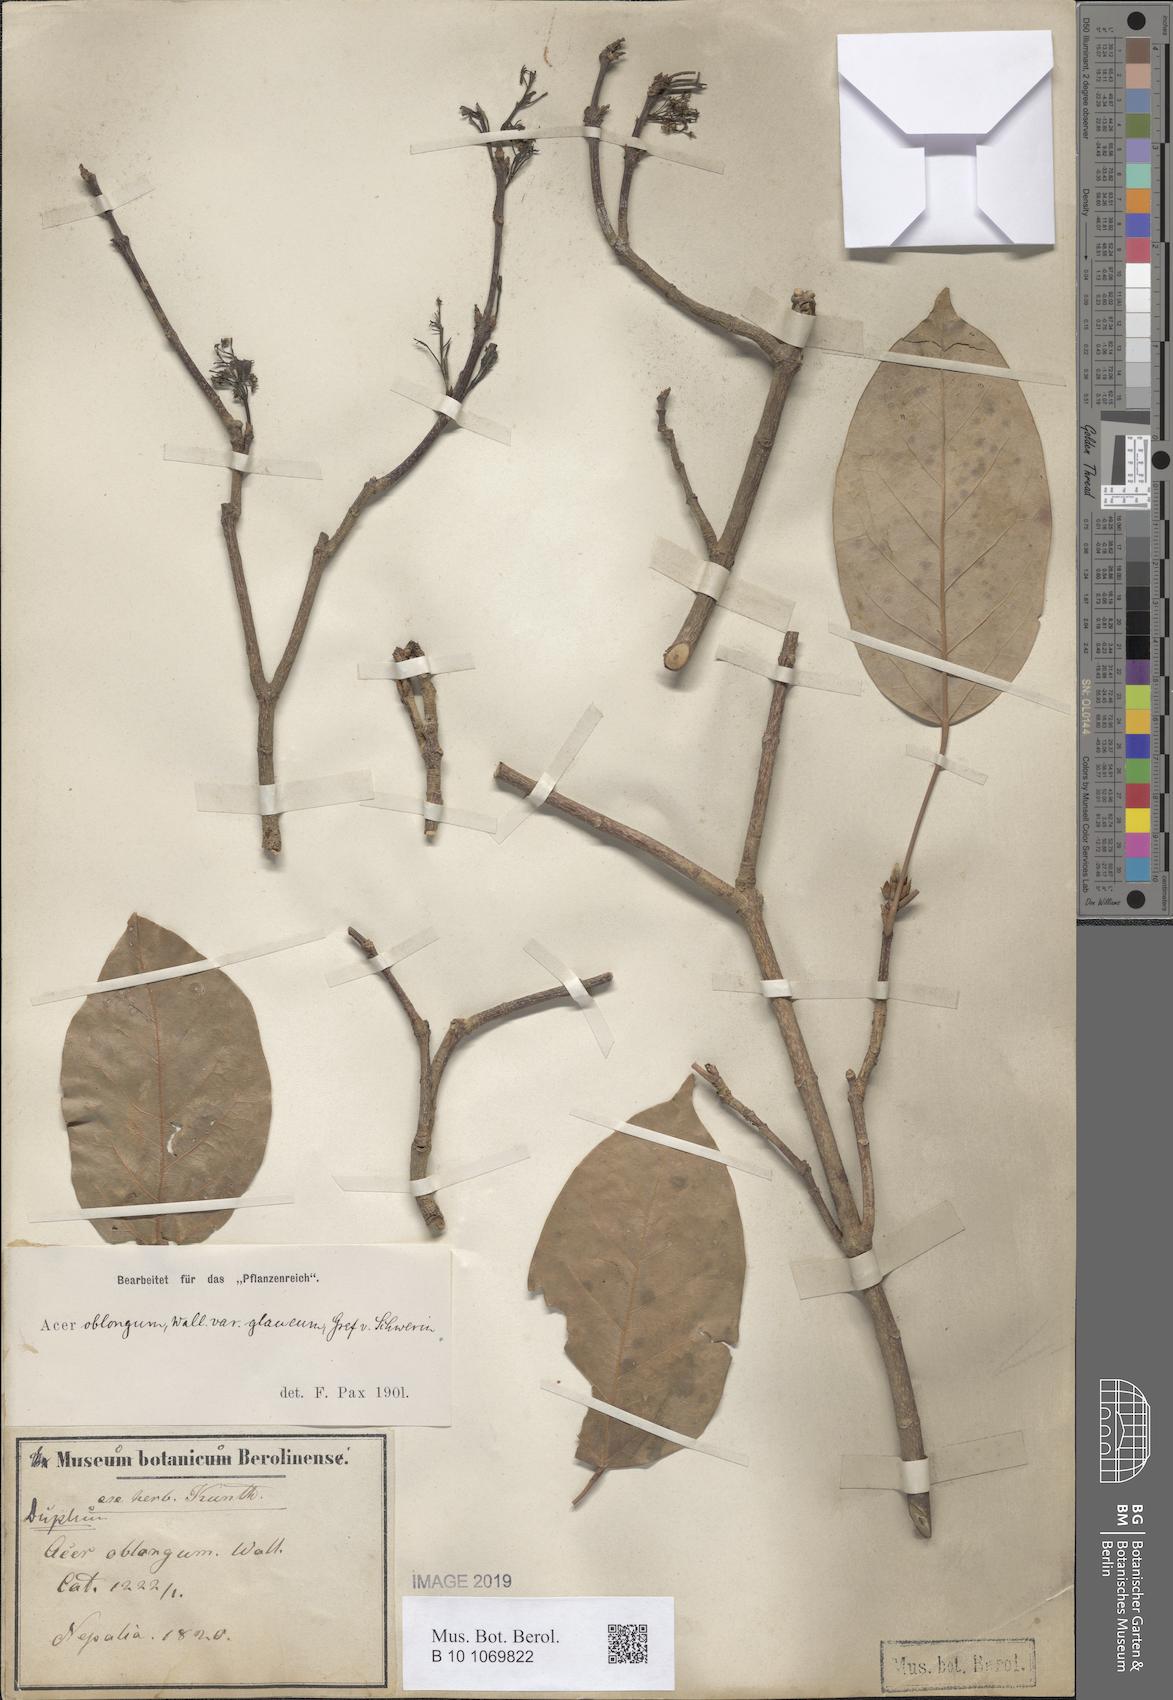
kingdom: Plantae
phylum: Tracheophyta
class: Magnoliopsida
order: Sapindales
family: Sapindaceae
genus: Acer
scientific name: Acer oblongum
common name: Himalayan maple
